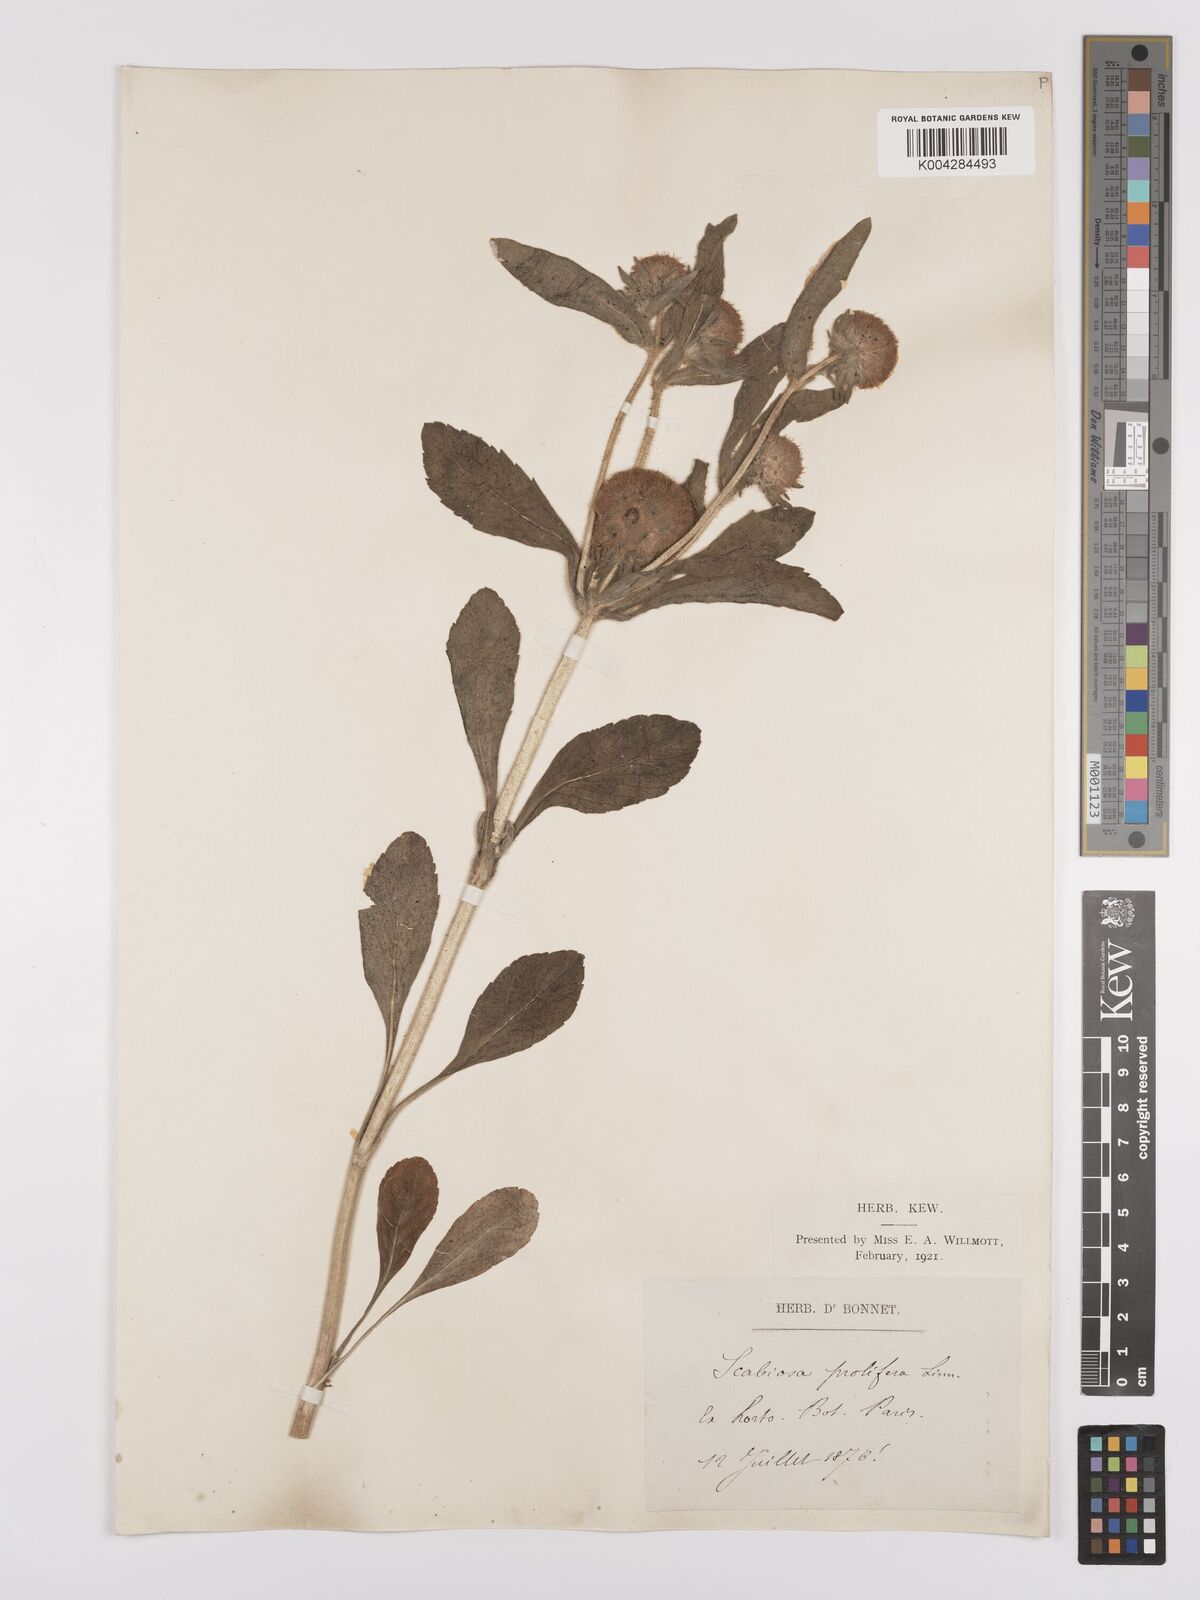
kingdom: Plantae
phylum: Tracheophyta
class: Magnoliopsida
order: Dipsacales
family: Caprifoliaceae
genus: Lomelosia
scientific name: Lomelosia prolifera
